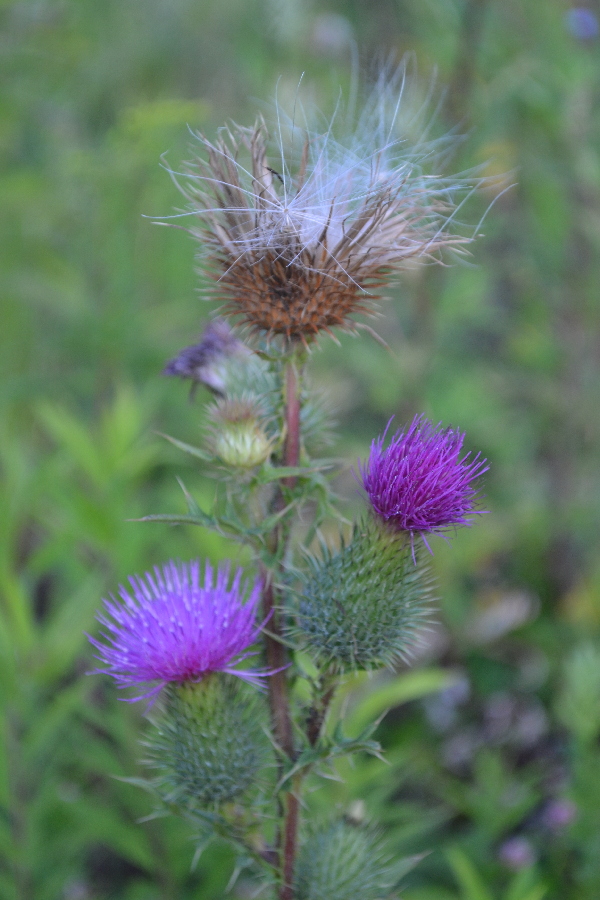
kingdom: Plantae
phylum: Tracheophyta
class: Magnoliopsida
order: Asterales
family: Asteraceae
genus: Cirsium
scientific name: Cirsium vulgare
